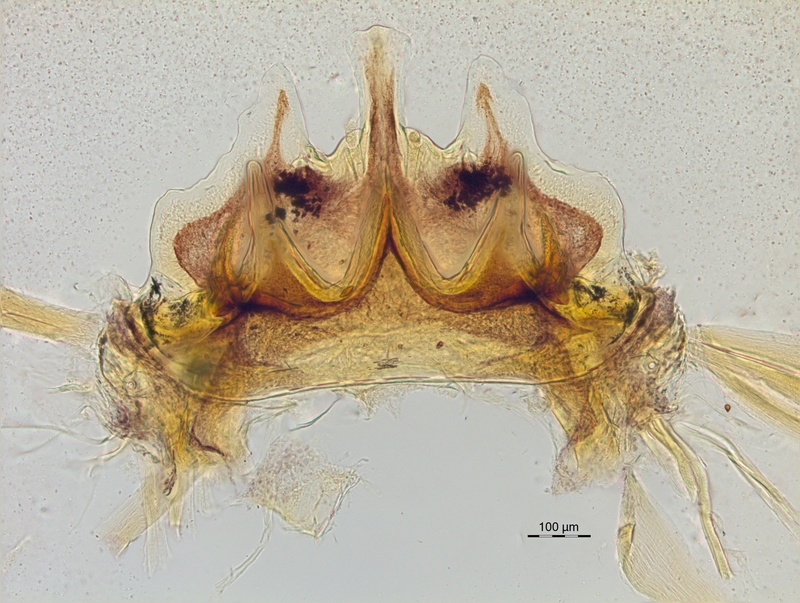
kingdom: Animalia
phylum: Arthropoda
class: Diplopoda
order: Chordeumatida
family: Craspedosomatidae
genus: Craspedosoma
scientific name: Craspedosoma rawlinsii
